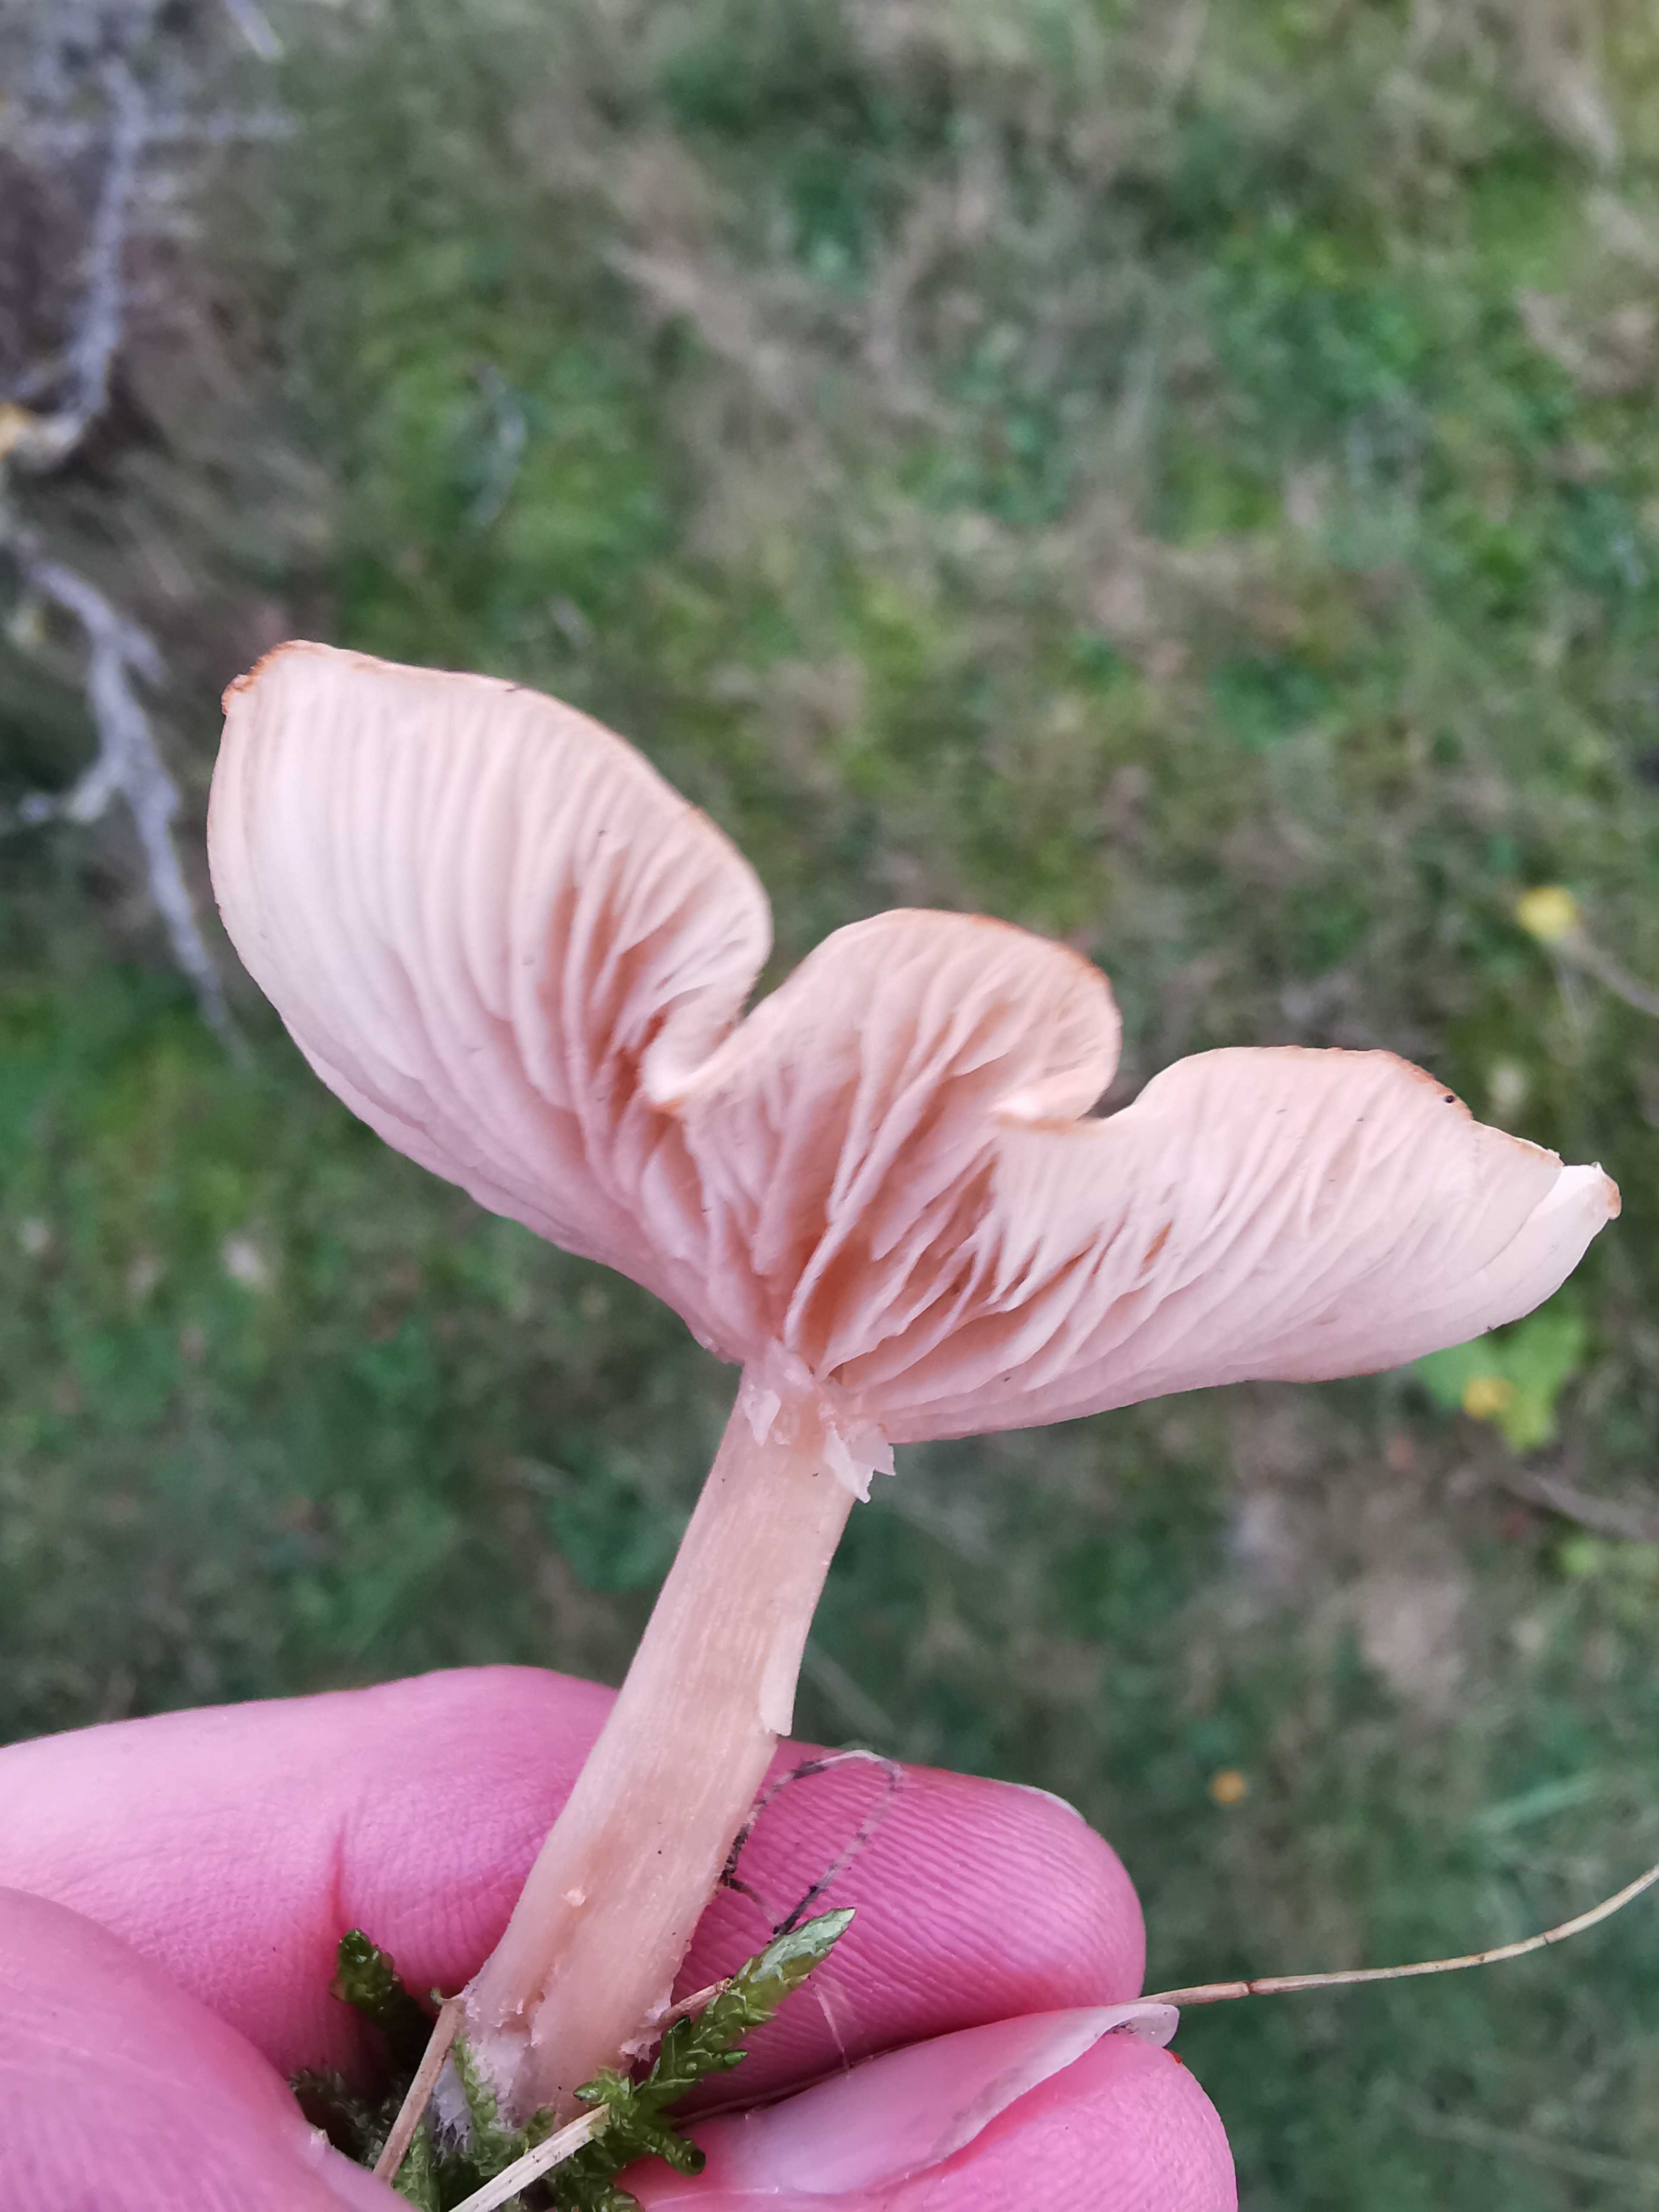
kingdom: Fungi
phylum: Basidiomycota
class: Agaricomycetes
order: Agaricales
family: Tricholomataceae
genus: Clitocybe
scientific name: Clitocybe fragrans
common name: vellugtende tragthat
